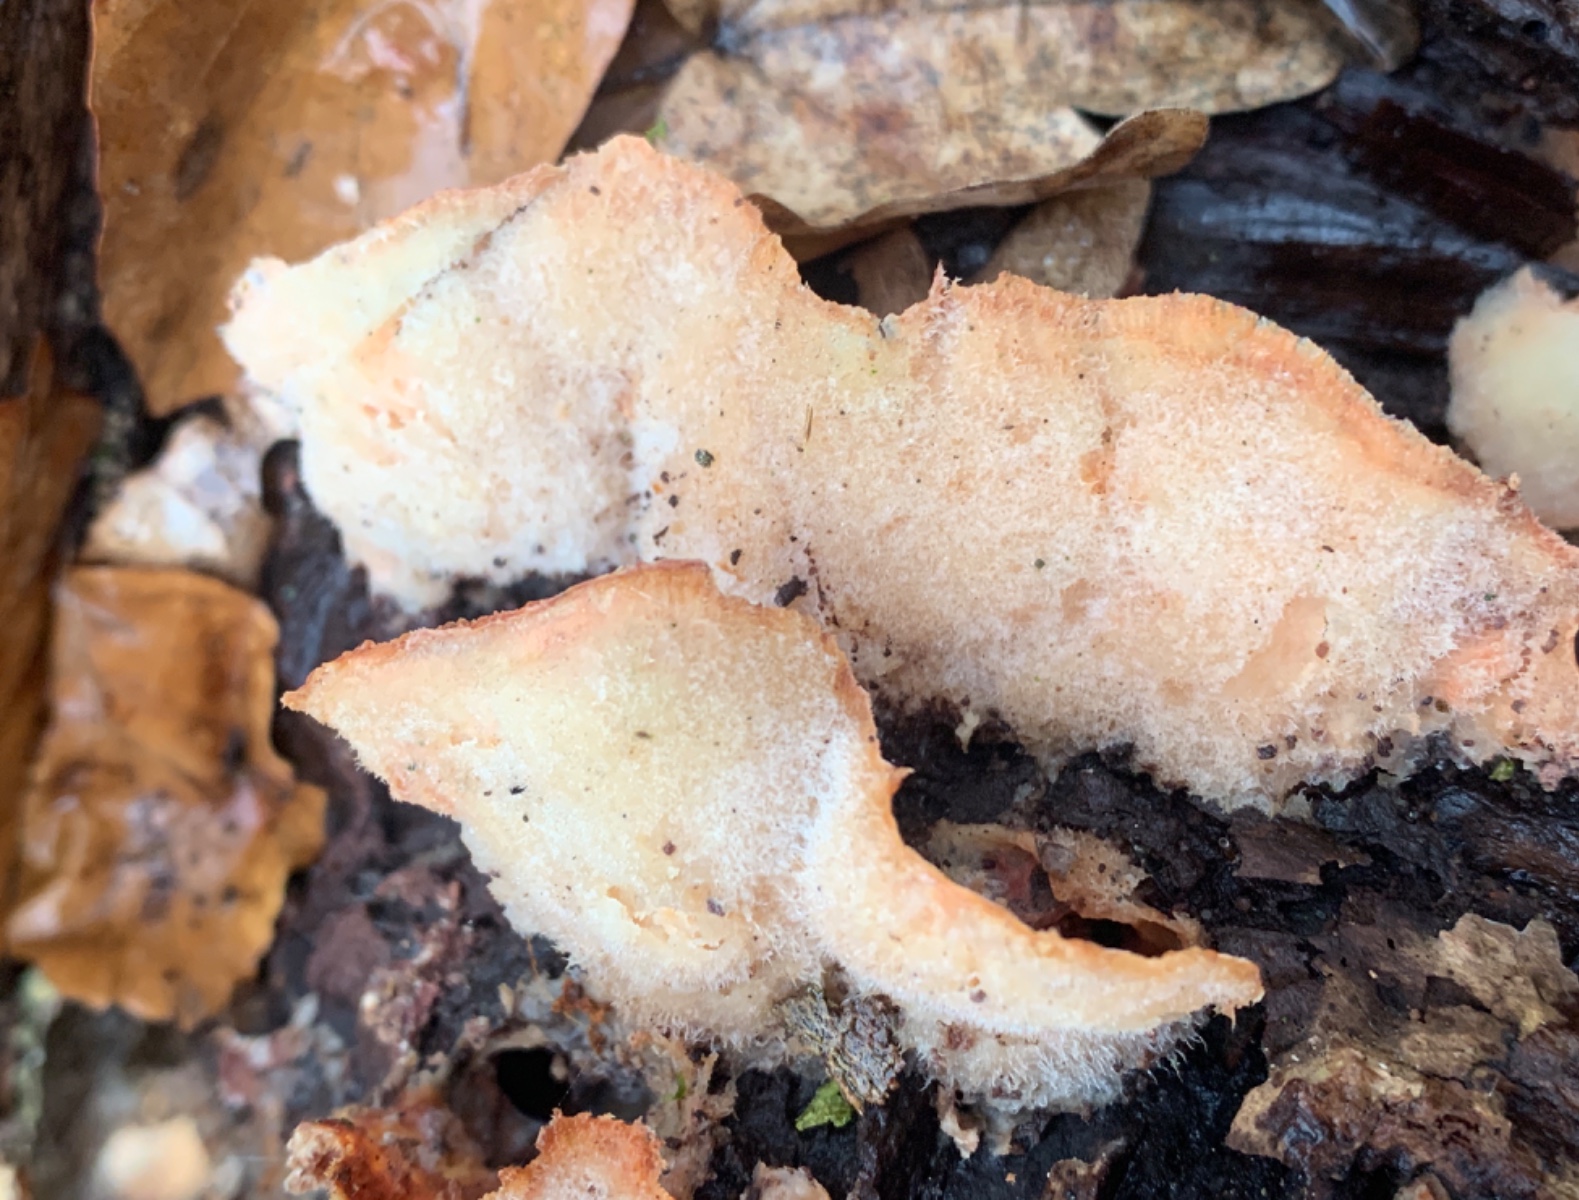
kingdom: Fungi
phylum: Basidiomycota
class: Agaricomycetes
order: Polyporales
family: Meruliaceae
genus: Phlebia
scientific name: Phlebia tremellosa
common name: bævrende åresvamp
